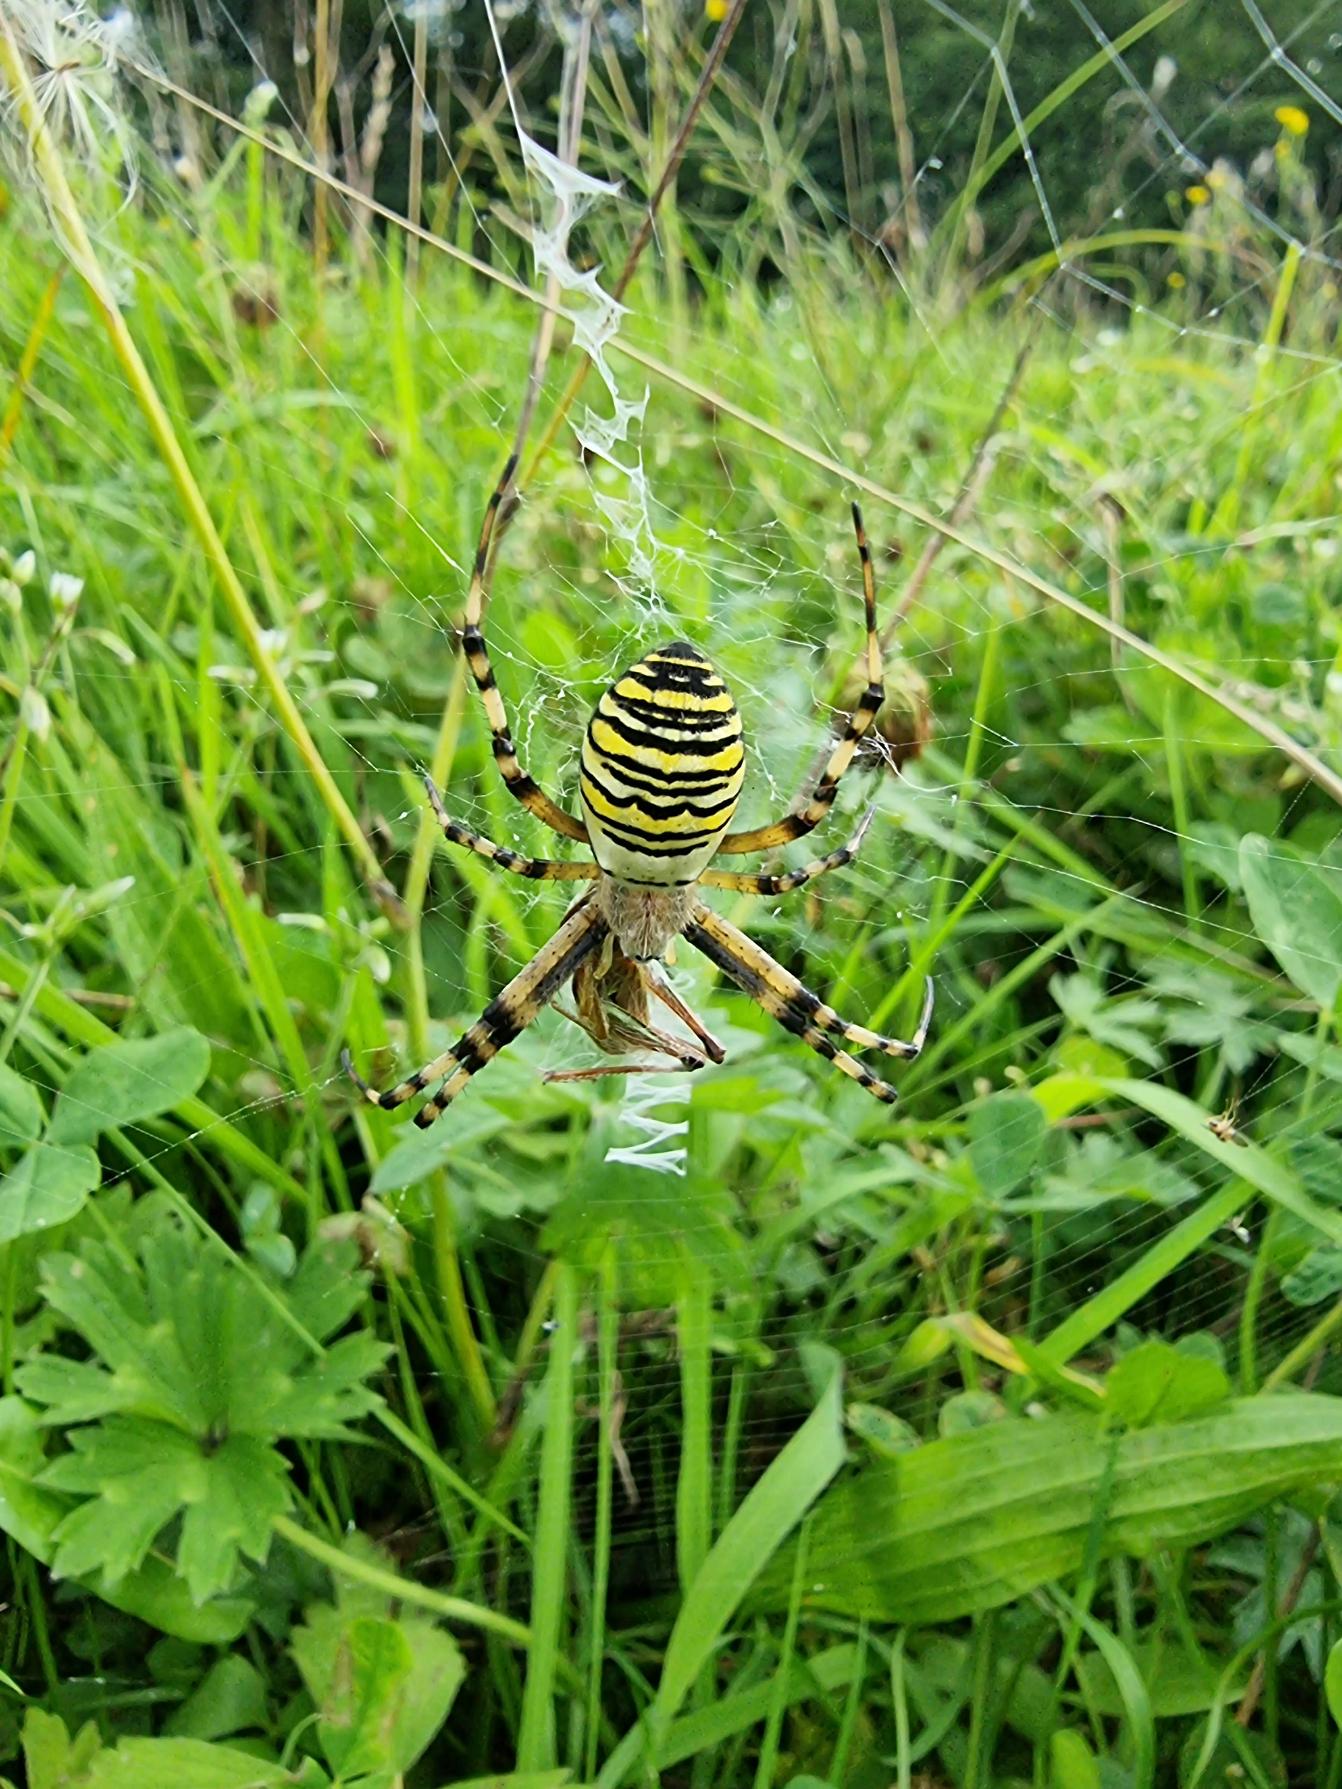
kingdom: Animalia
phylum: Arthropoda
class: Arachnida
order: Araneae
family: Araneidae
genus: Argiope
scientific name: Argiope bruennichi
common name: Hvepseedderkop
